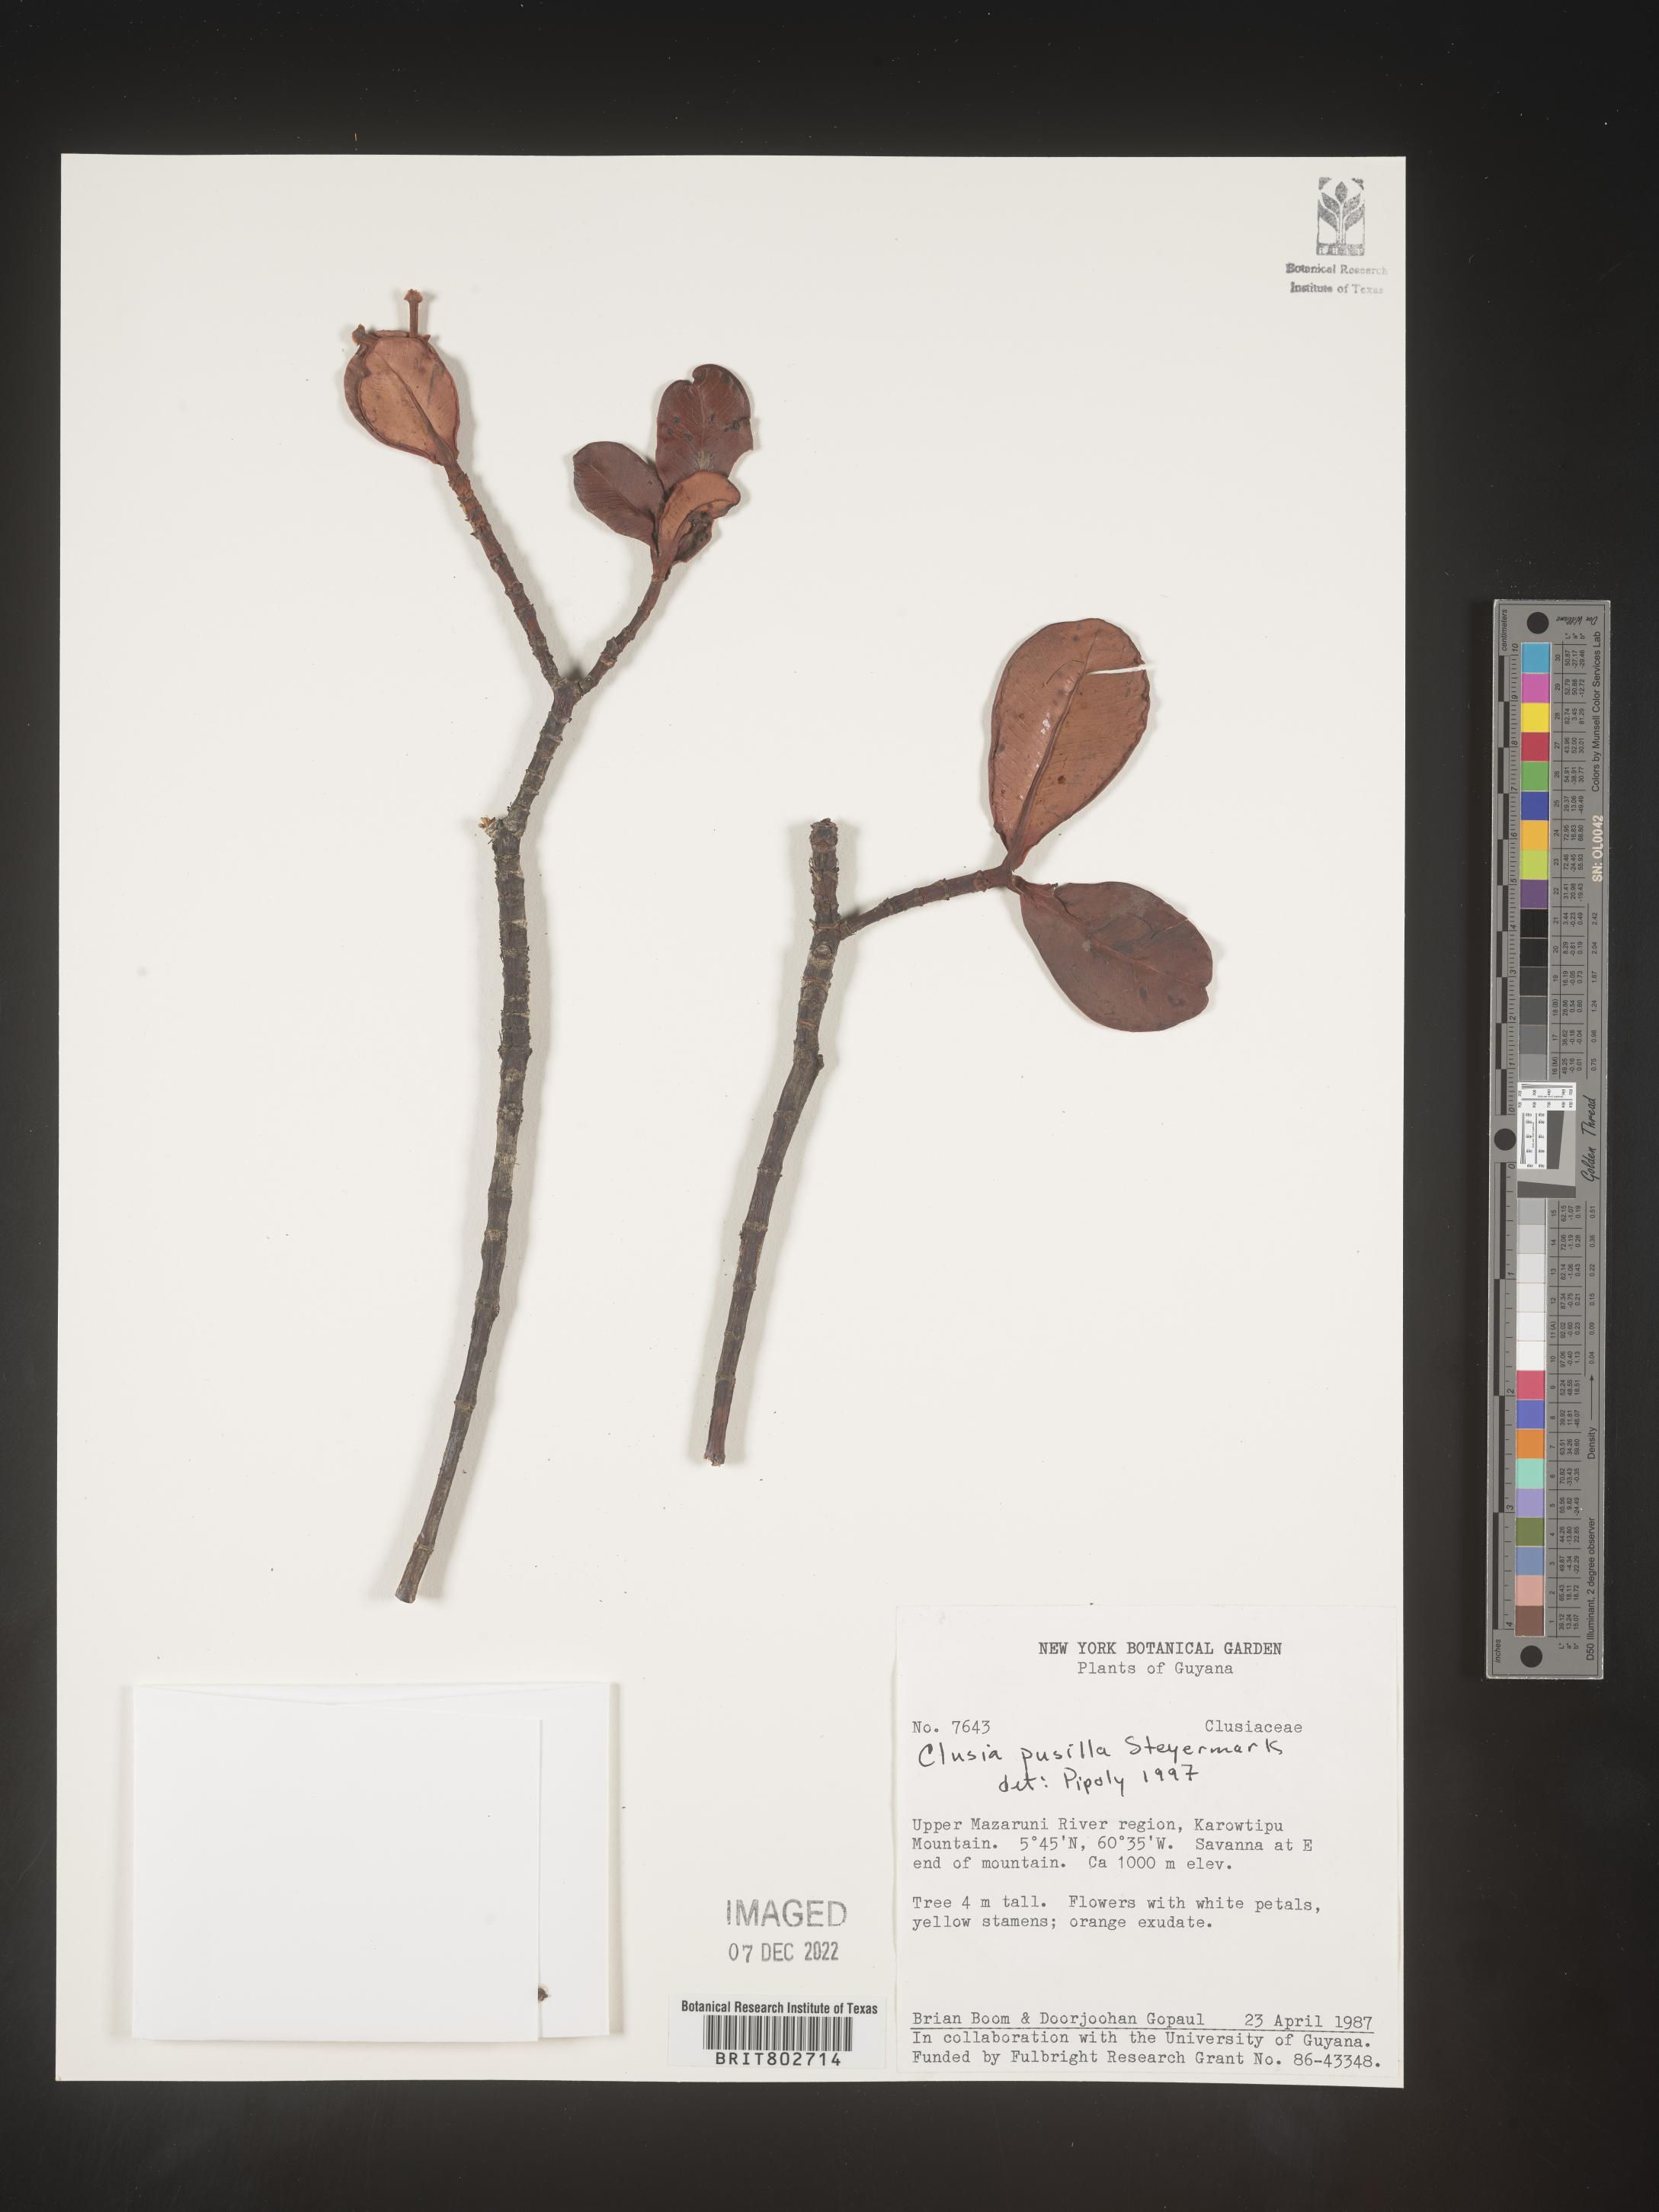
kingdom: Plantae
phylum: Tracheophyta
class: Magnoliopsida
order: Malpighiales
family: Clusiaceae
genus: Clusia
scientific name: Clusia pusilla
